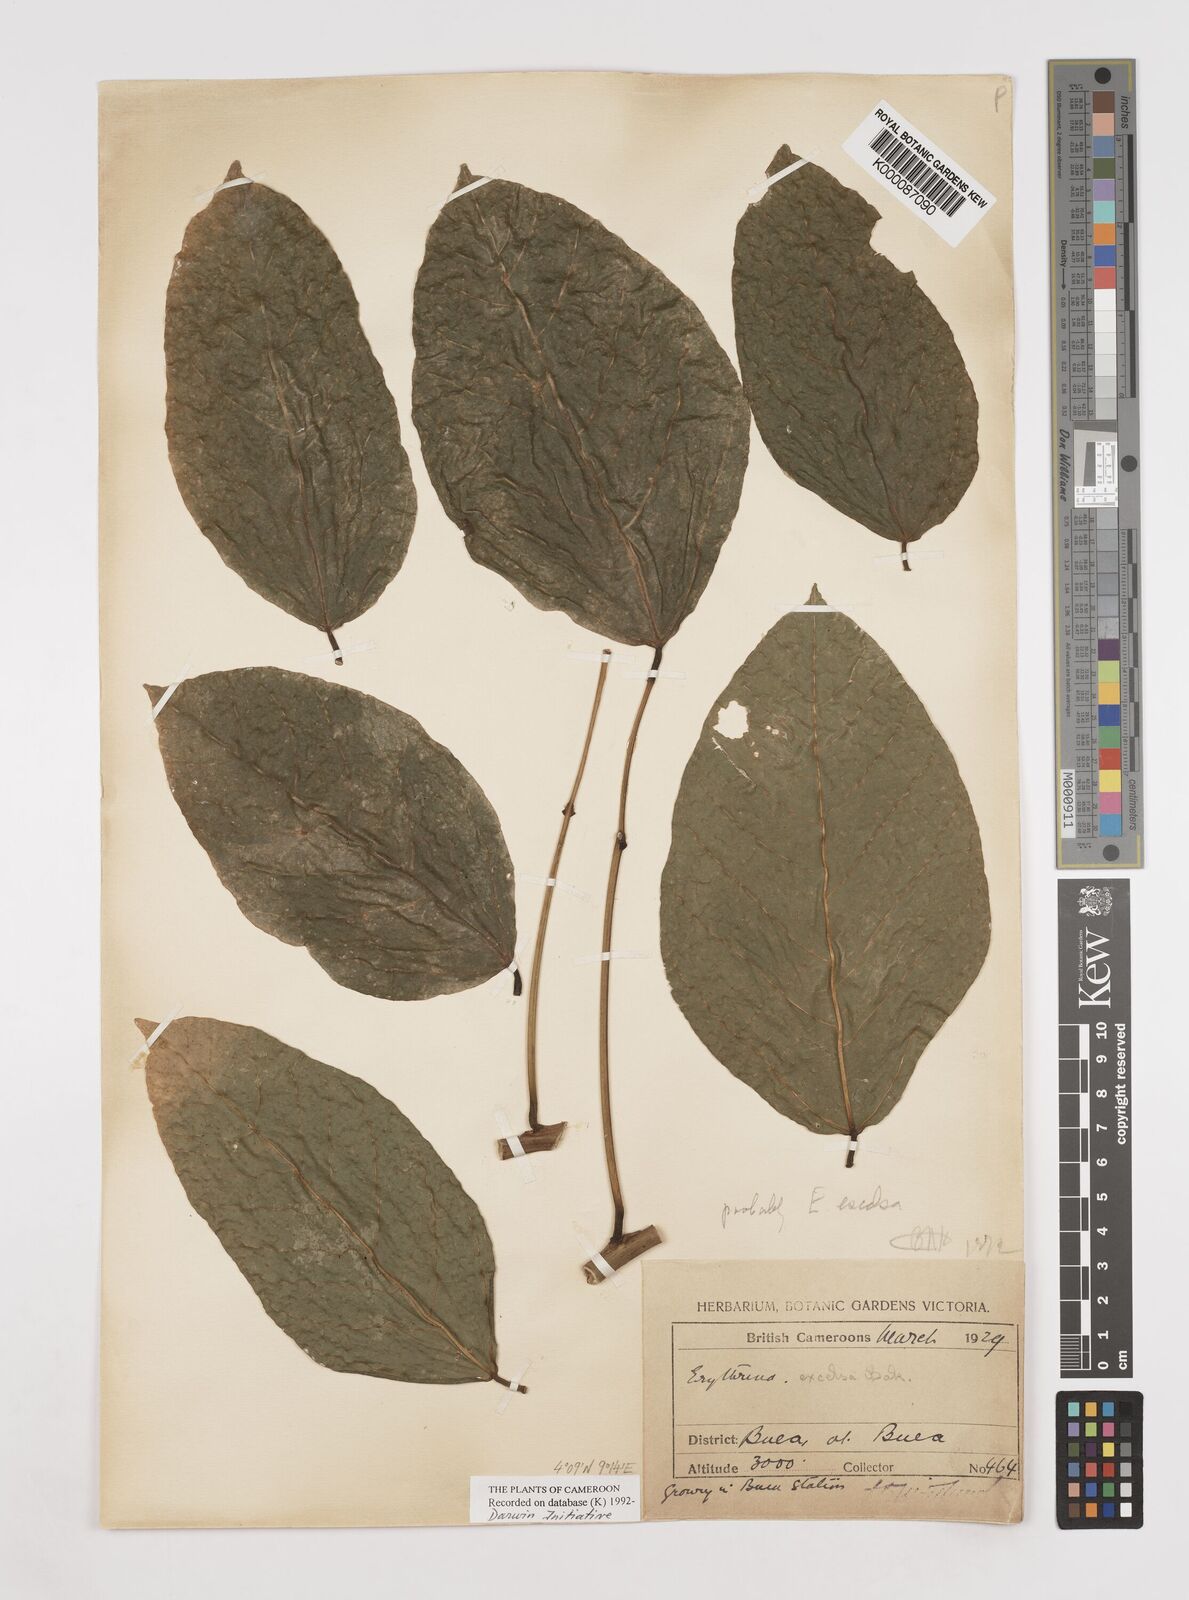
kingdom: Plantae
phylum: Tracheophyta
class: Magnoliopsida
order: Fabales
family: Fabaceae
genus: Erythrina
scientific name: Erythrina excelsa
